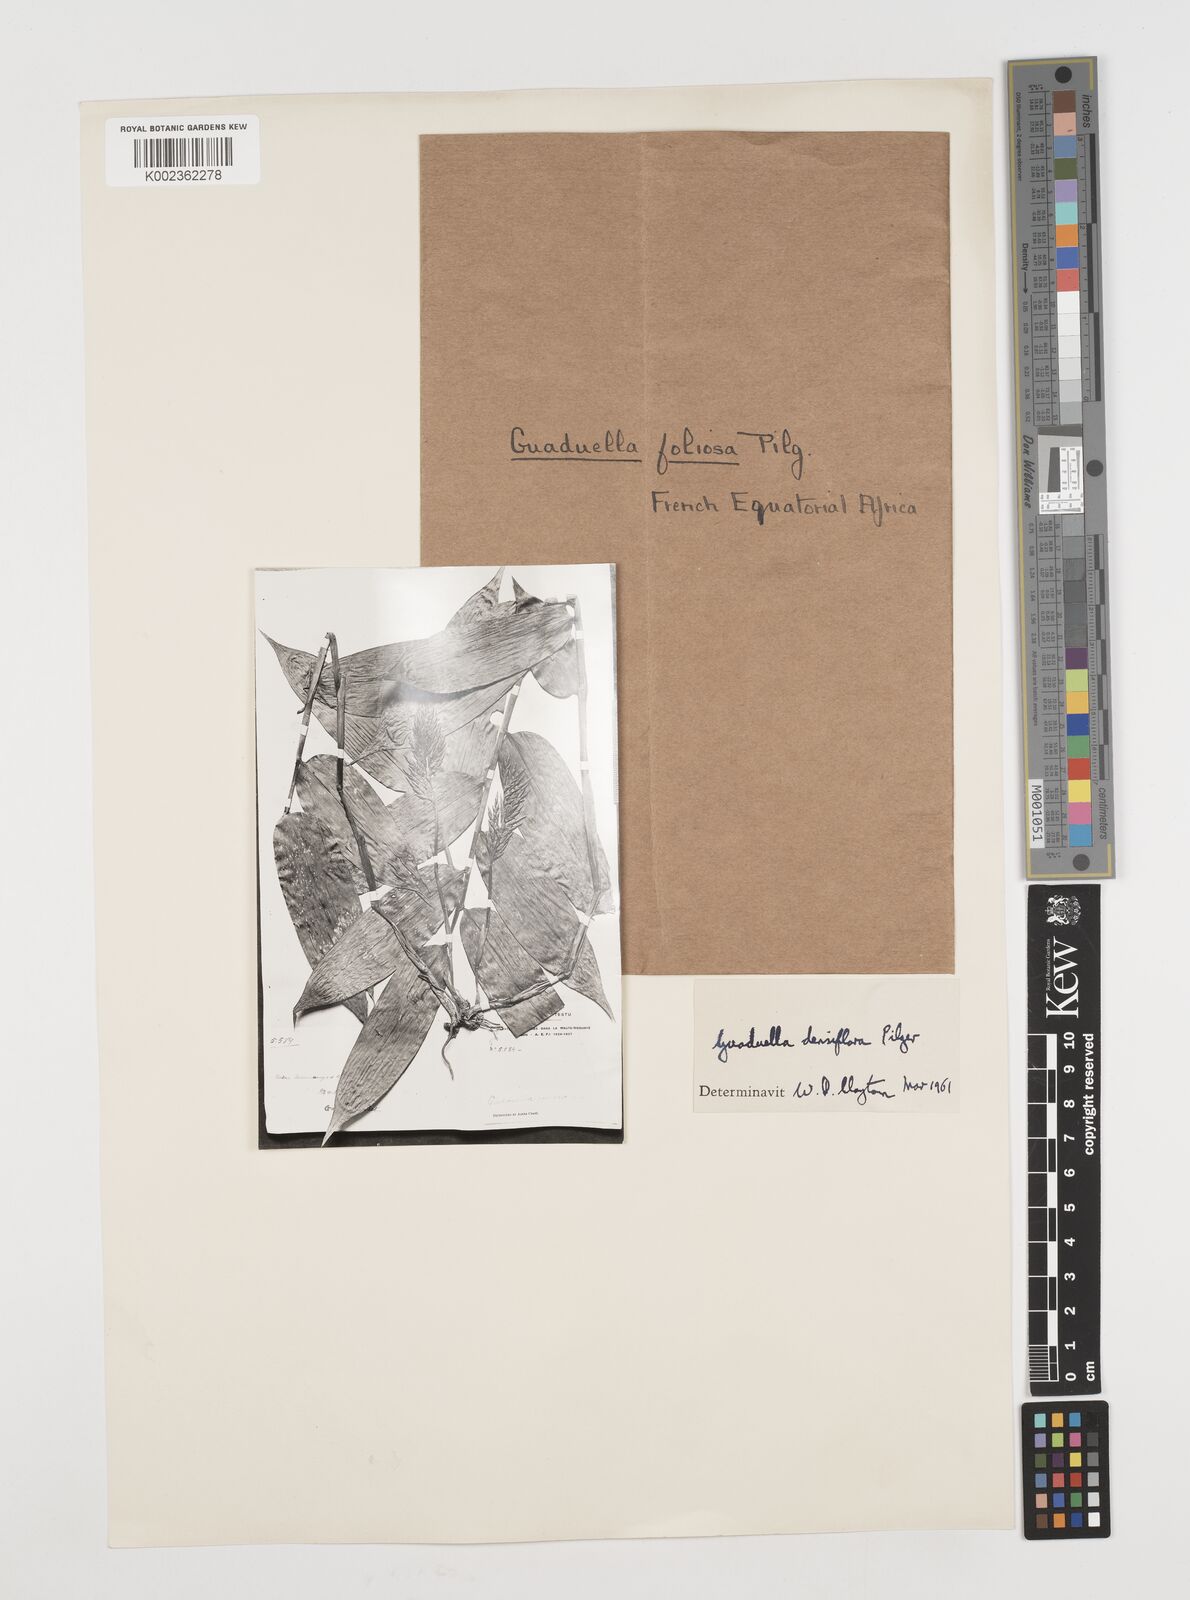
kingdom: Plantae
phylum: Tracheophyta
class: Liliopsida
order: Poales
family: Poaceae
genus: Guaduella
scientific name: Guaduella densiflora
